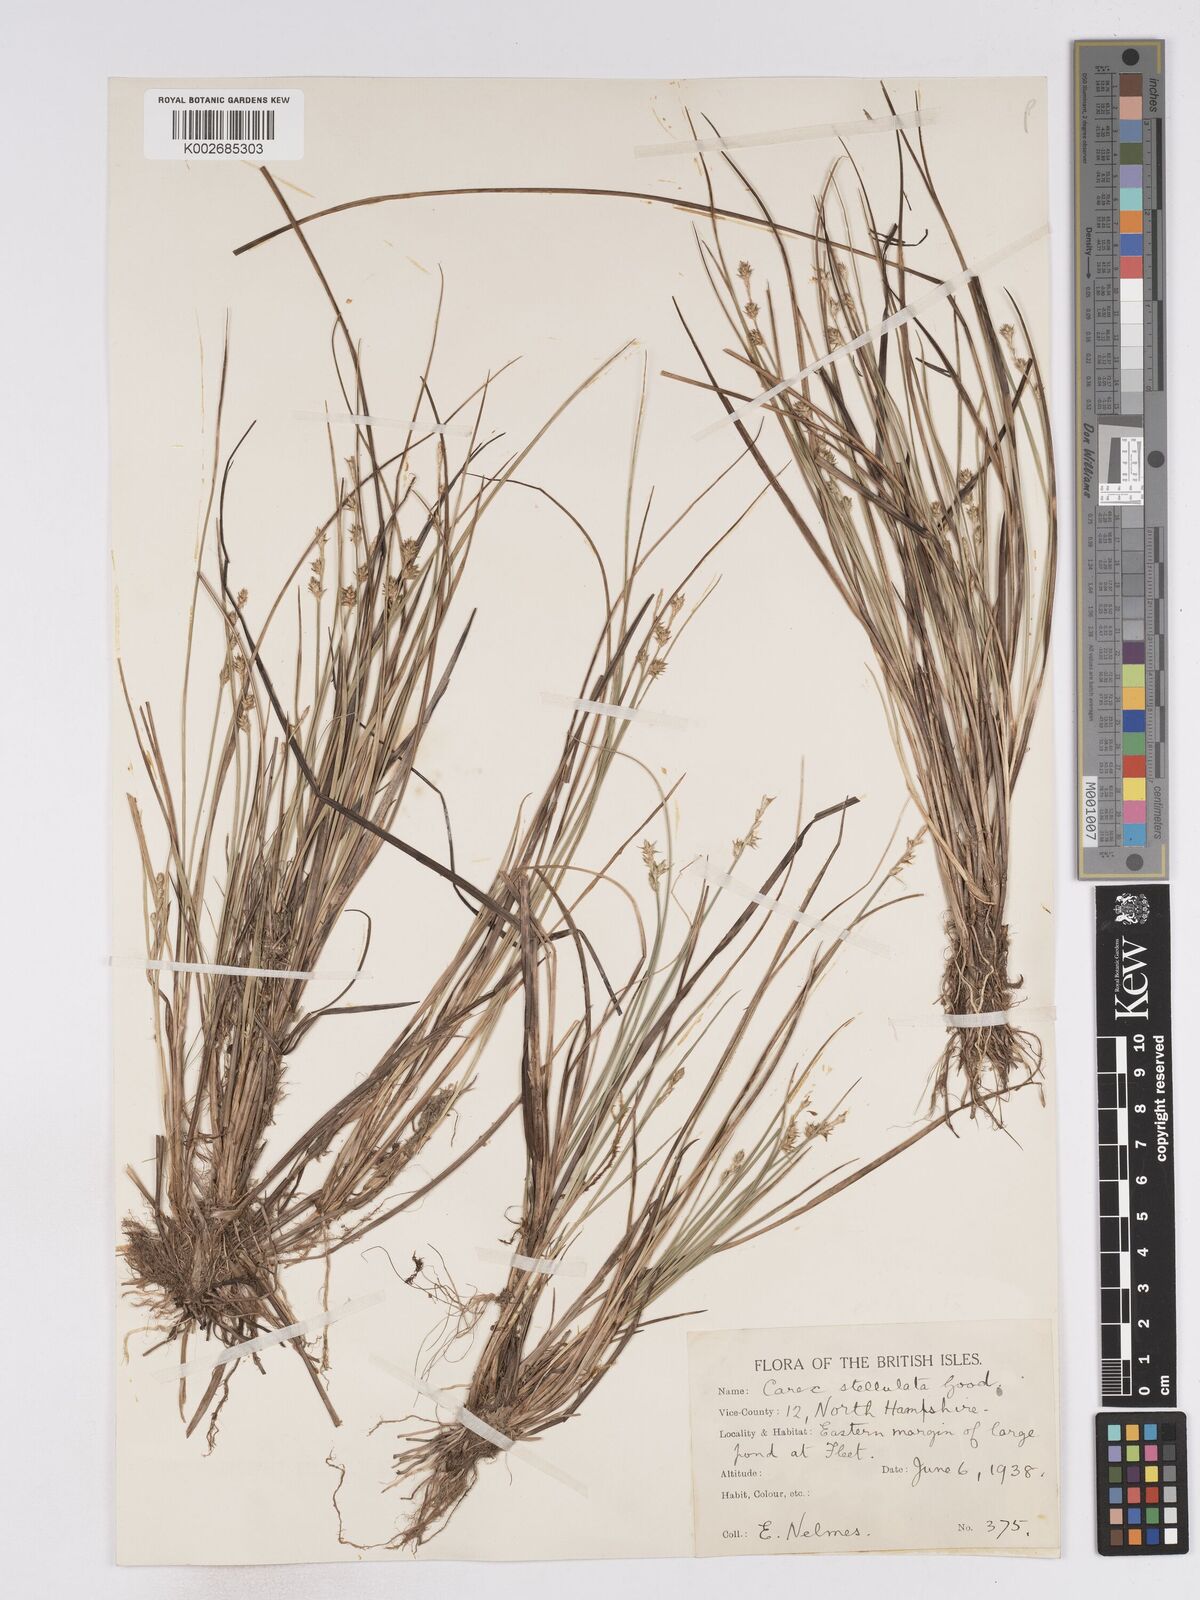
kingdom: Plantae
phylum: Tracheophyta
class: Liliopsida
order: Poales
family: Cyperaceae
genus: Carex
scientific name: Carex echinata
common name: Star sedge
